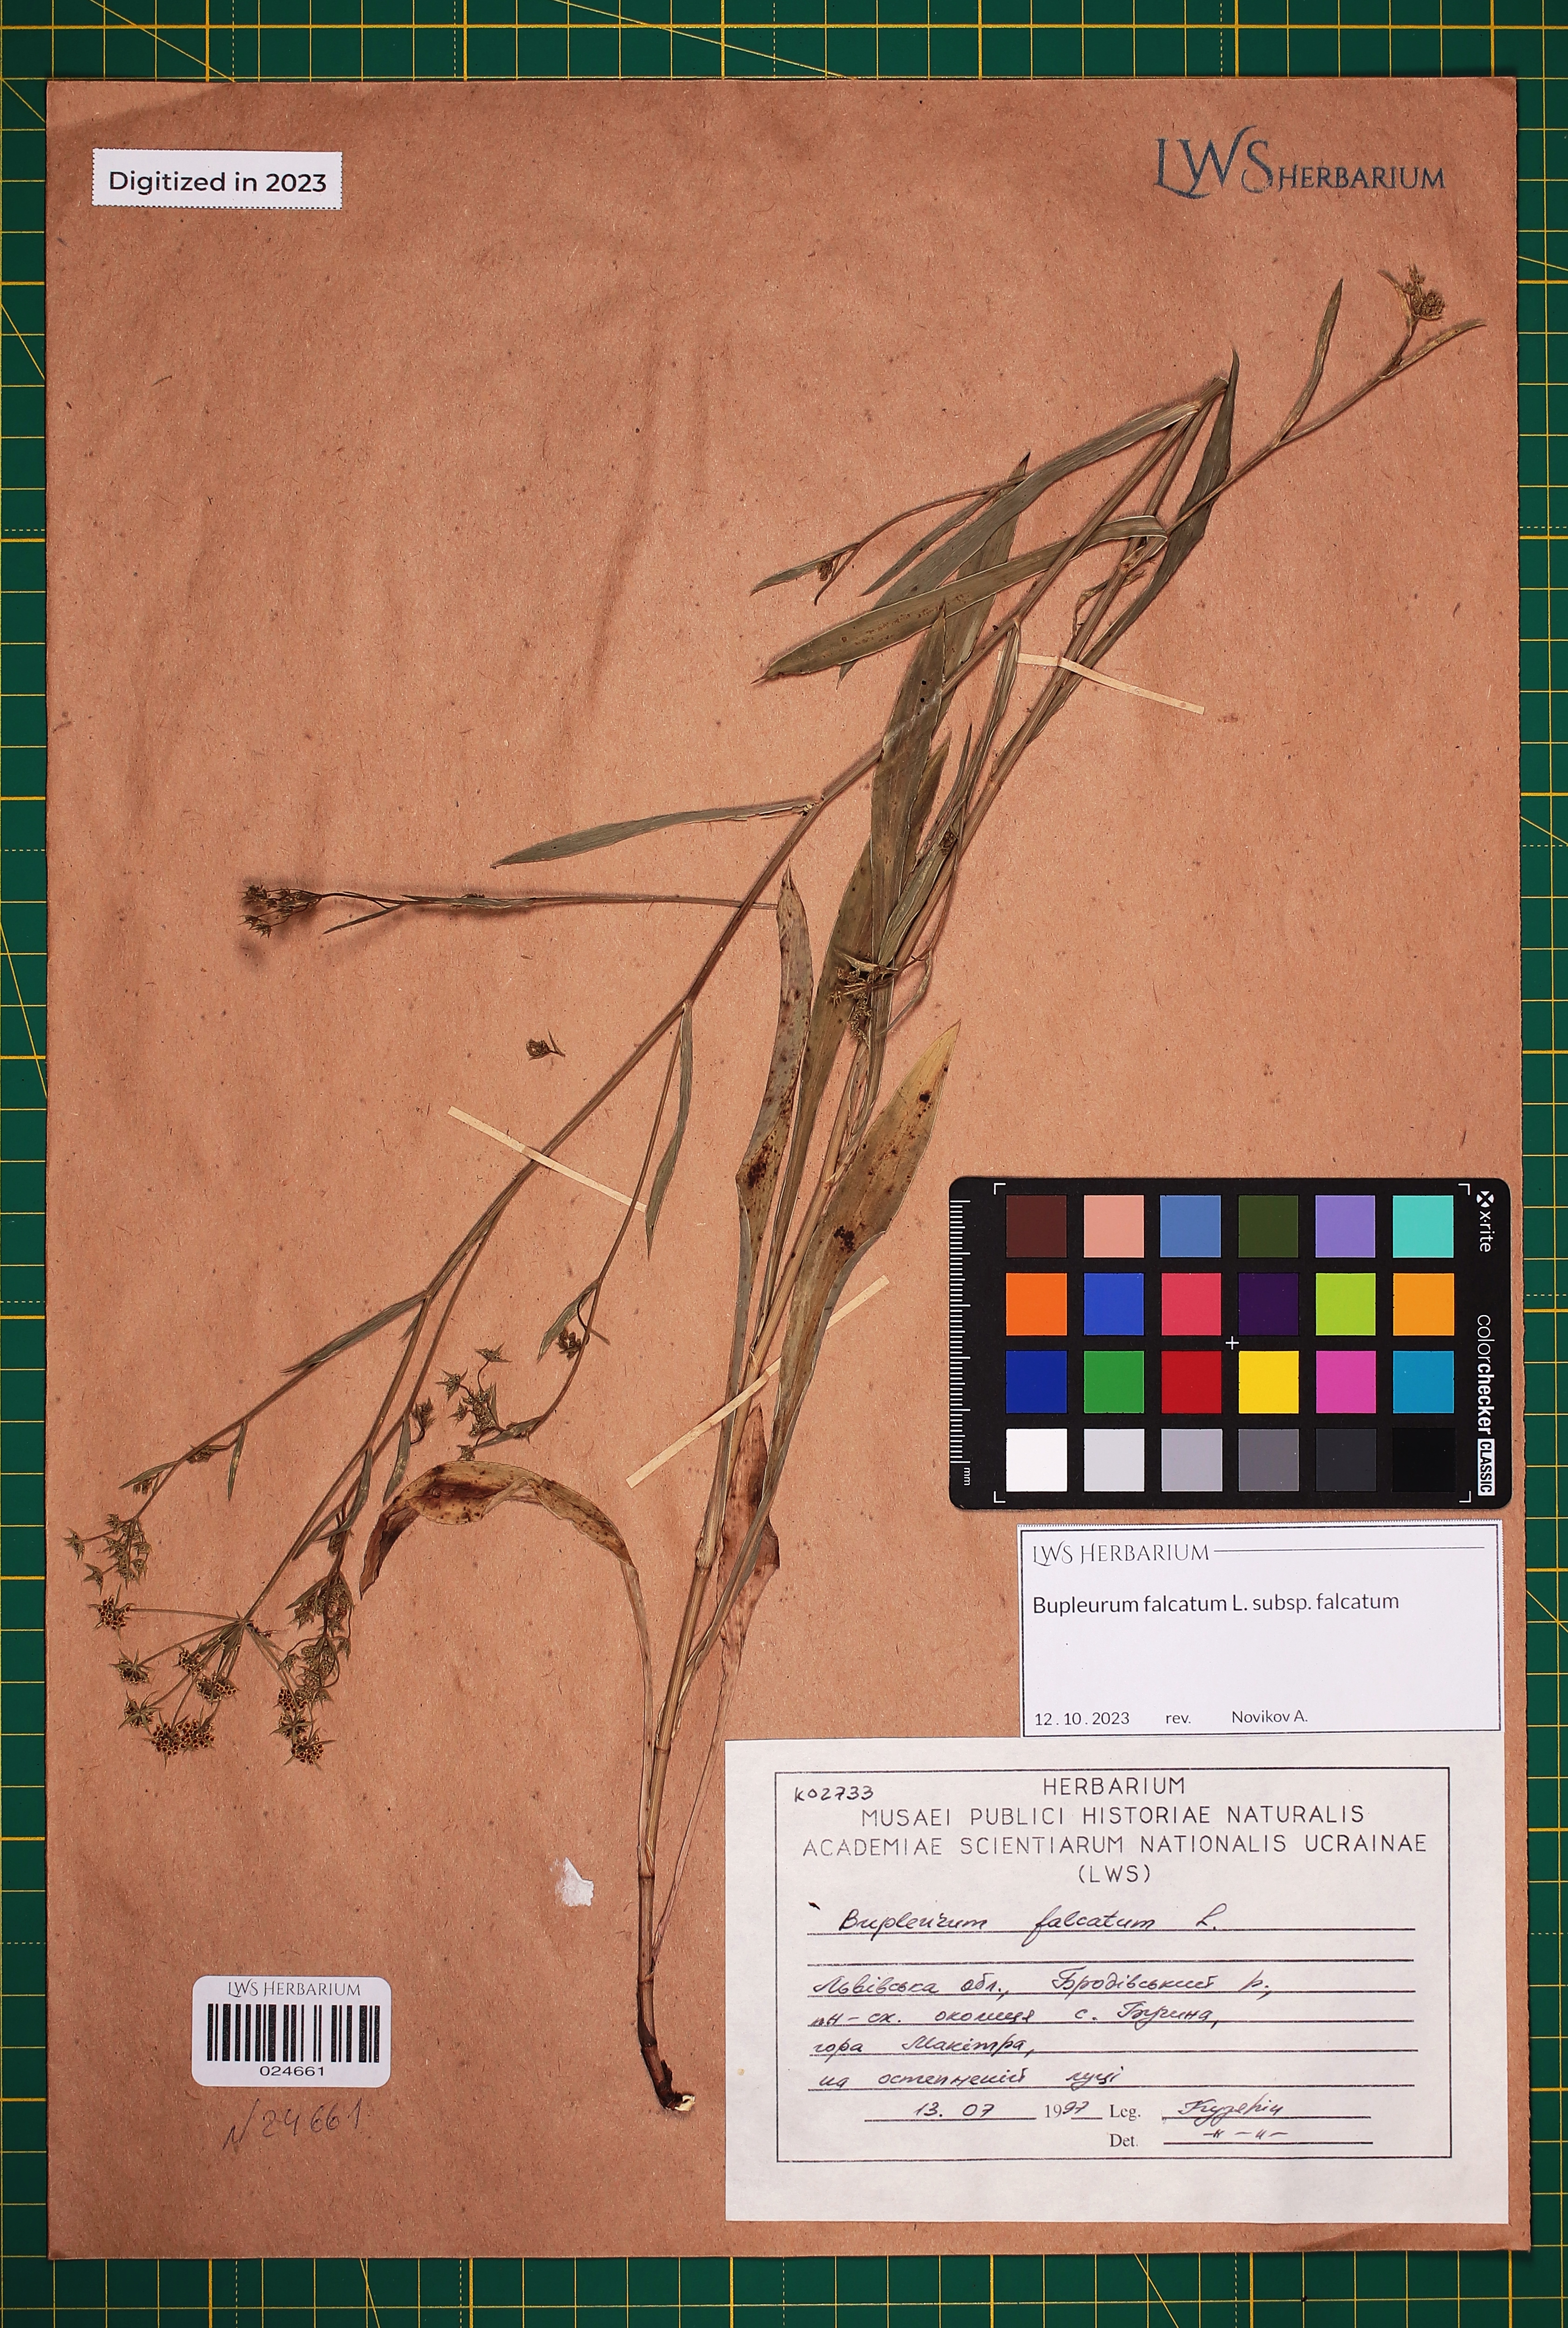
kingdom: Plantae
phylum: Tracheophyta
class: Magnoliopsida
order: Apiales
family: Apiaceae
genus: Bupleurum
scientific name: Bupleurum falcatum
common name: Sickle-leaved hare's-ear
